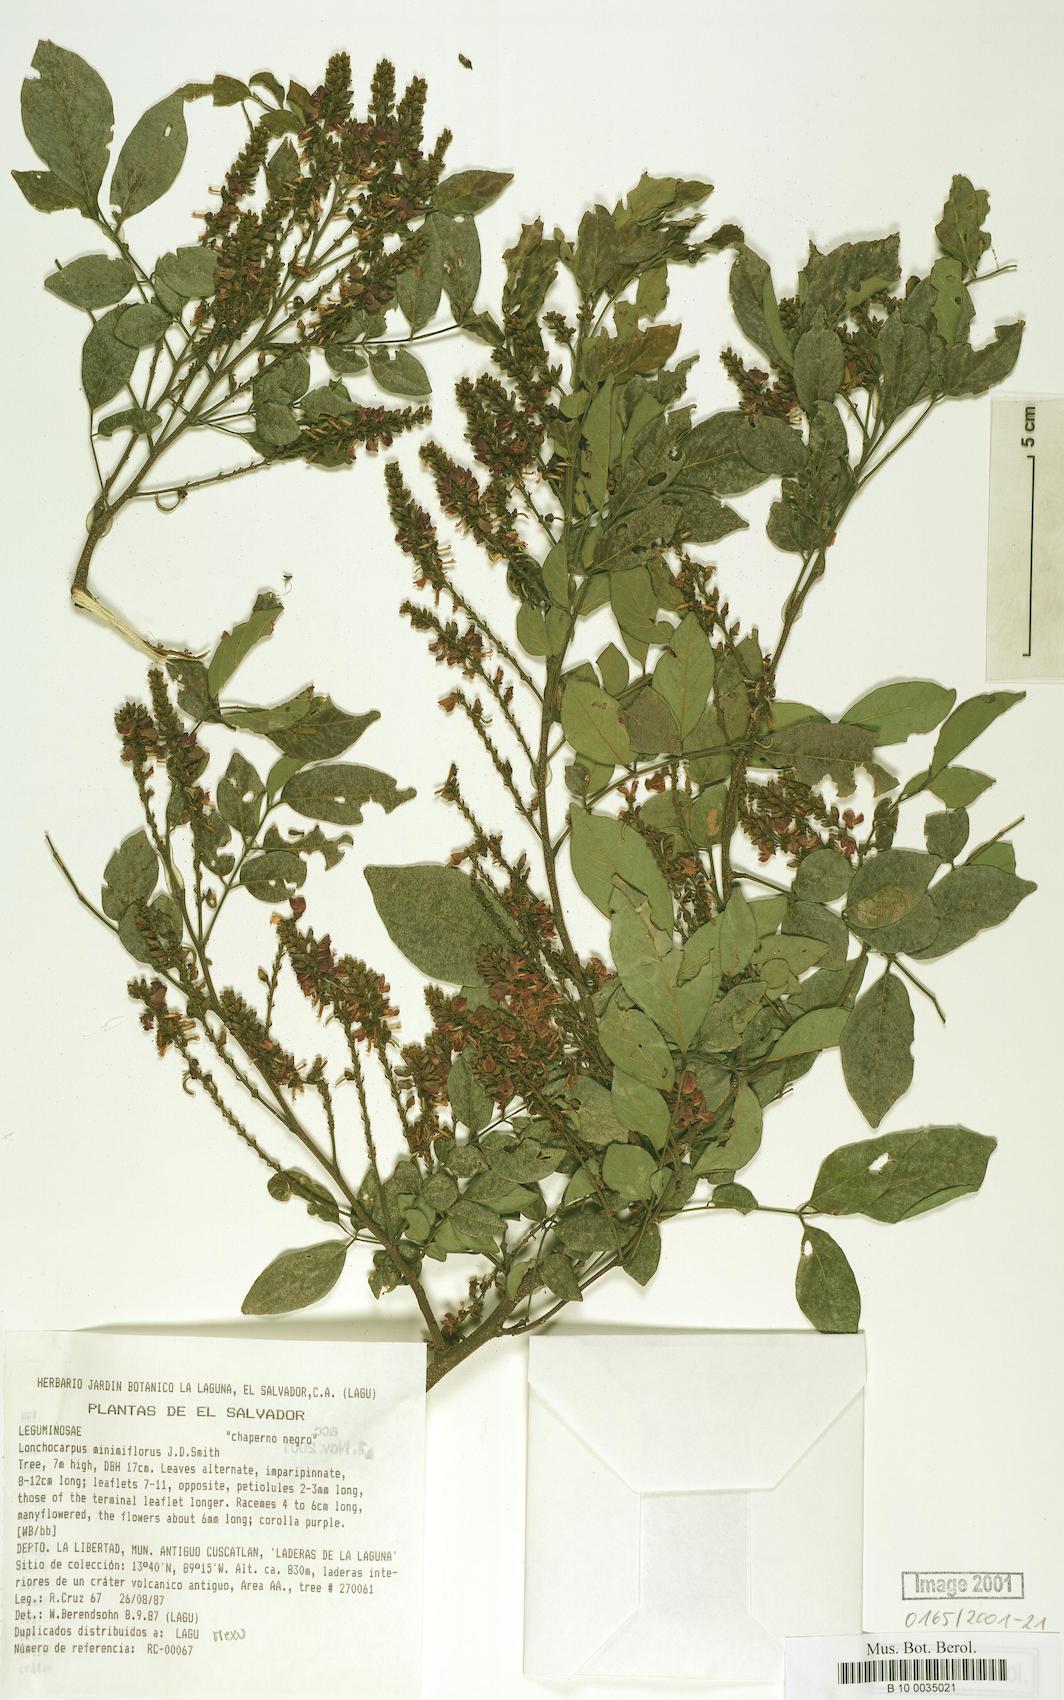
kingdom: Plantae
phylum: Tracheophyta
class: Magnoliopsida
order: Fabales
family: Fabaceae
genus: Lonchocarpus
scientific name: Lonchocarpus minimiflorus
